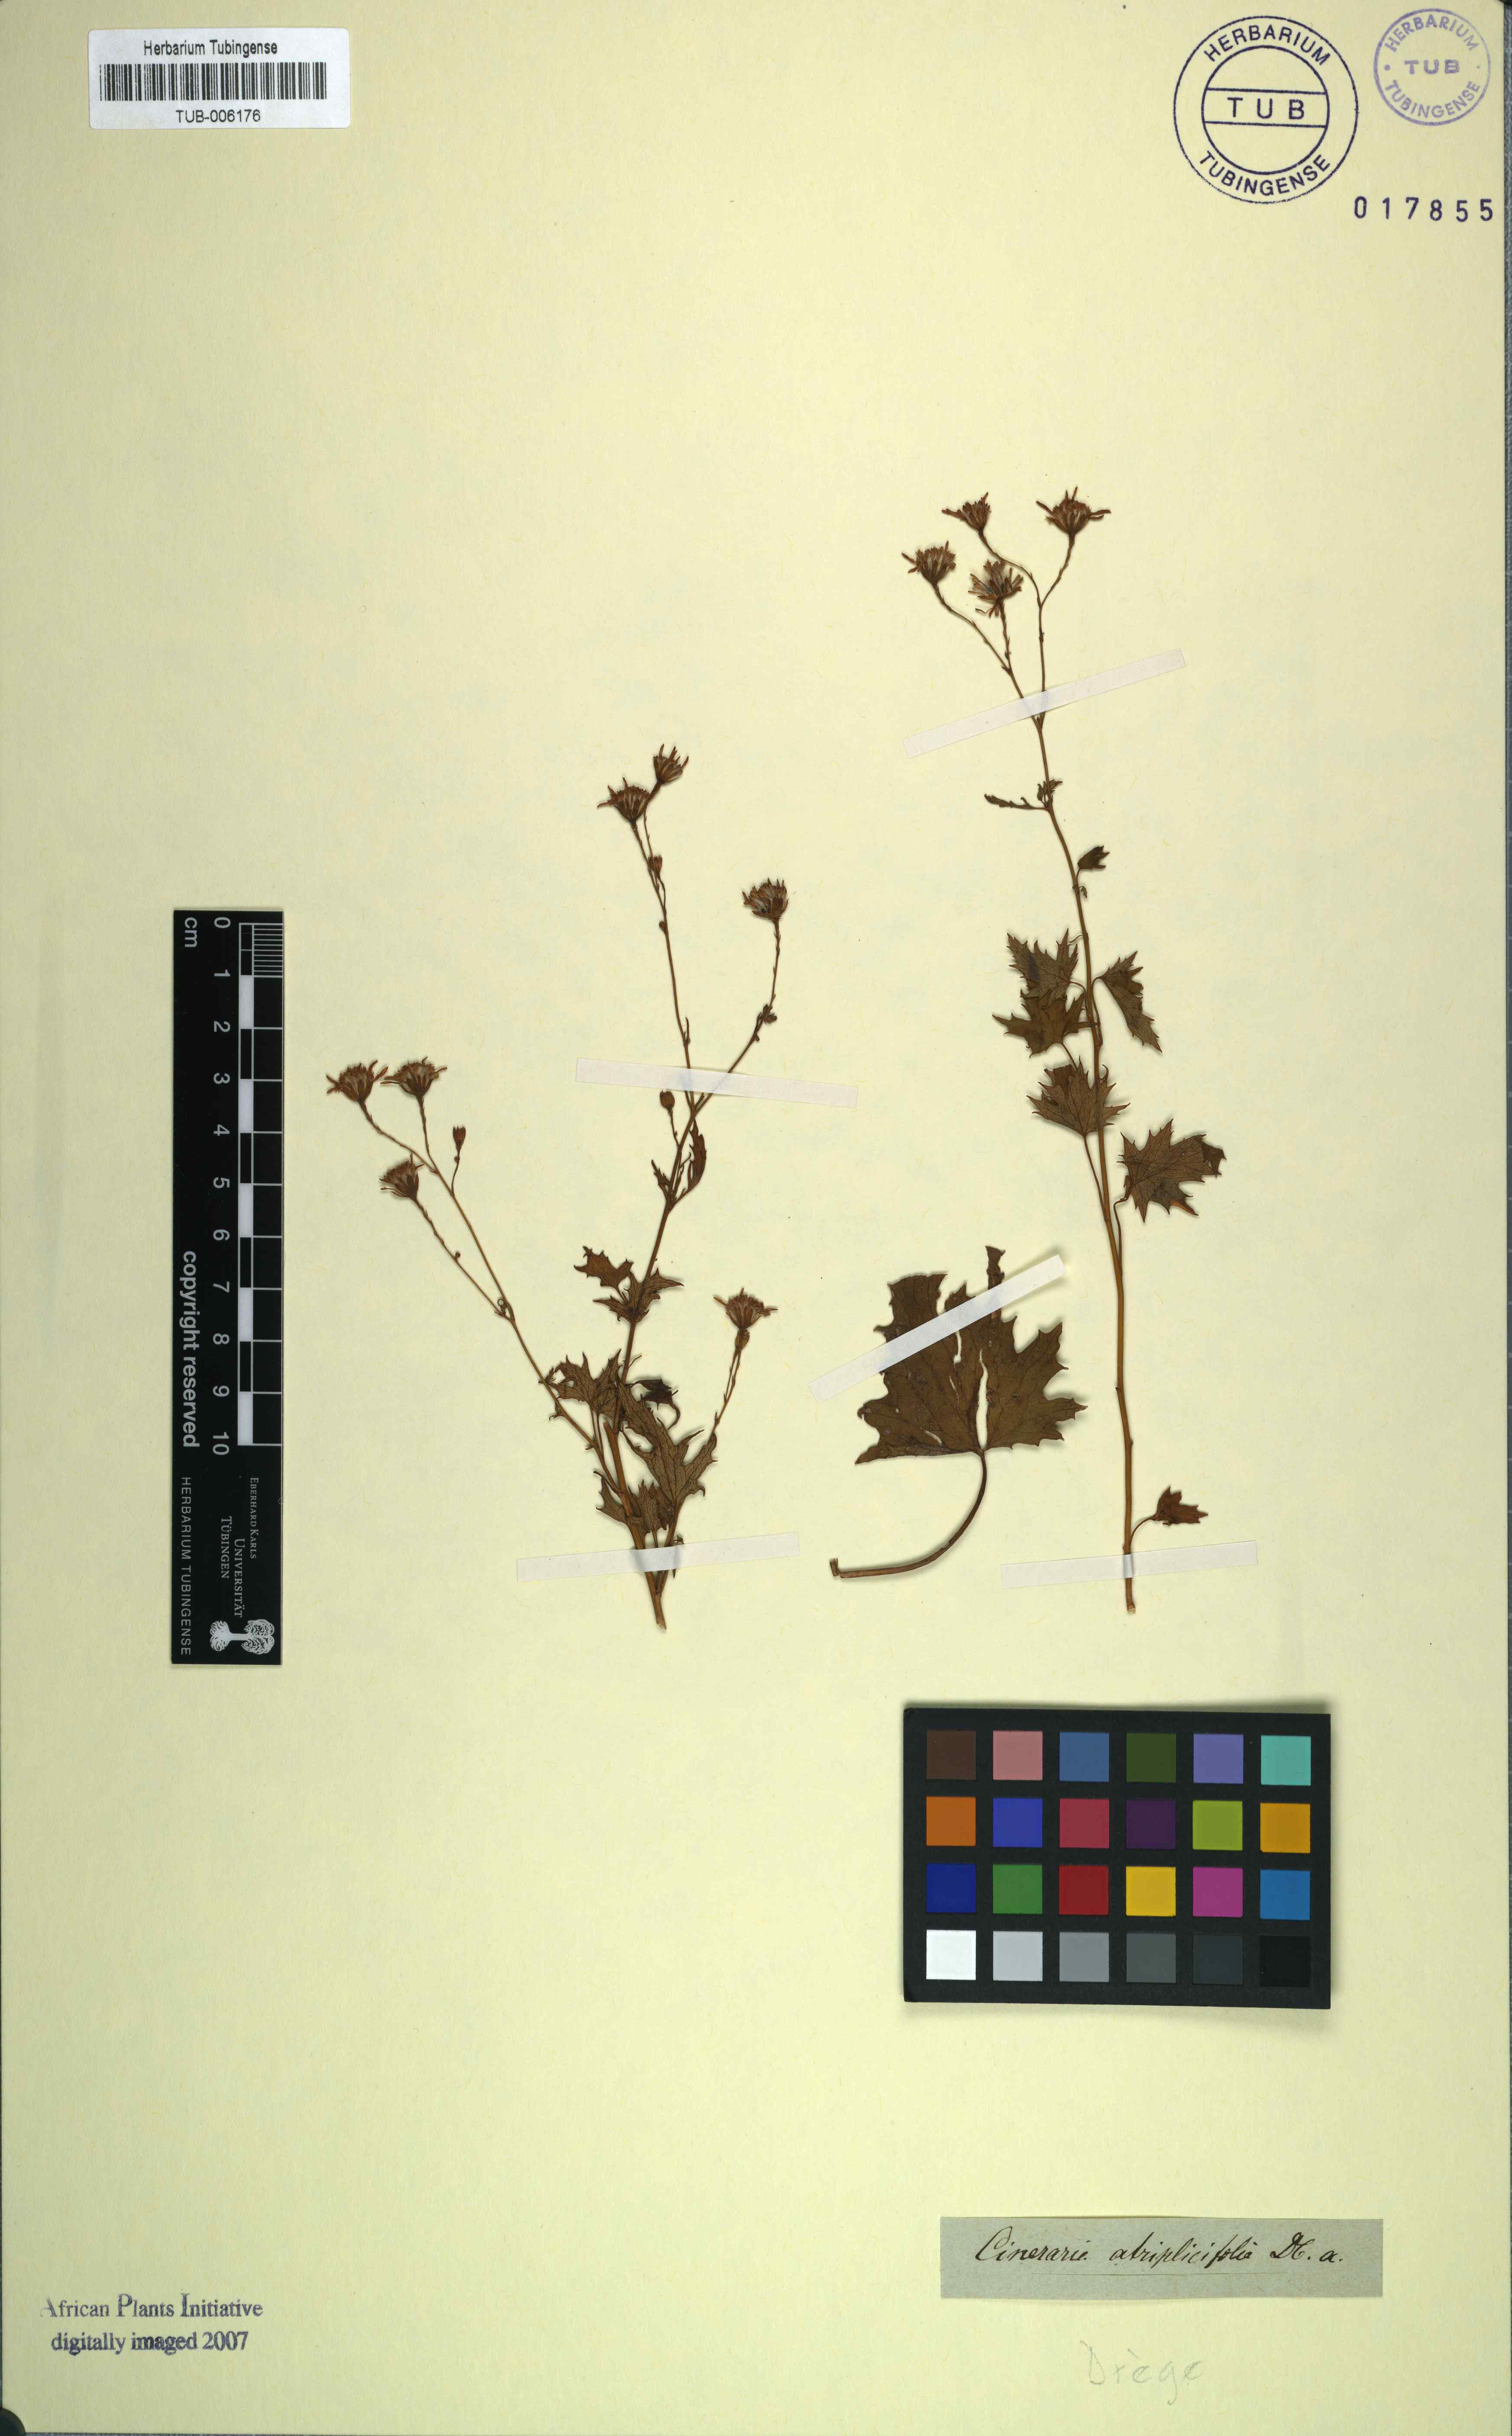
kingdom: Plantae
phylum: Tracheophyta
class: Magnoliopsida
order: Asterales
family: Asteraceae
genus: Cineraria
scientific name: Cineraria atriplicifolia
